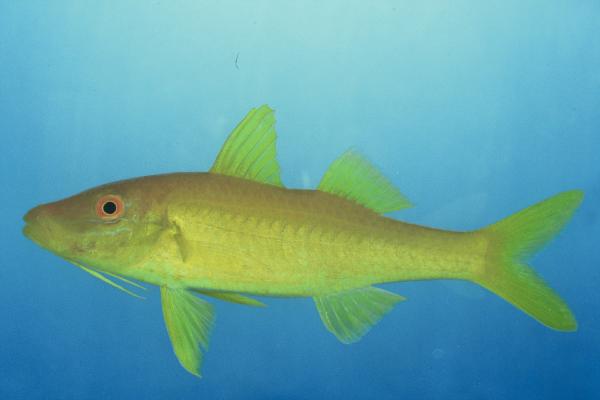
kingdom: Animalia
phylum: Chordata
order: Perciformes
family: Mullidae
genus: Parupeneus
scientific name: Parupeneus heptacanthus
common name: Cinnabar goatfish
